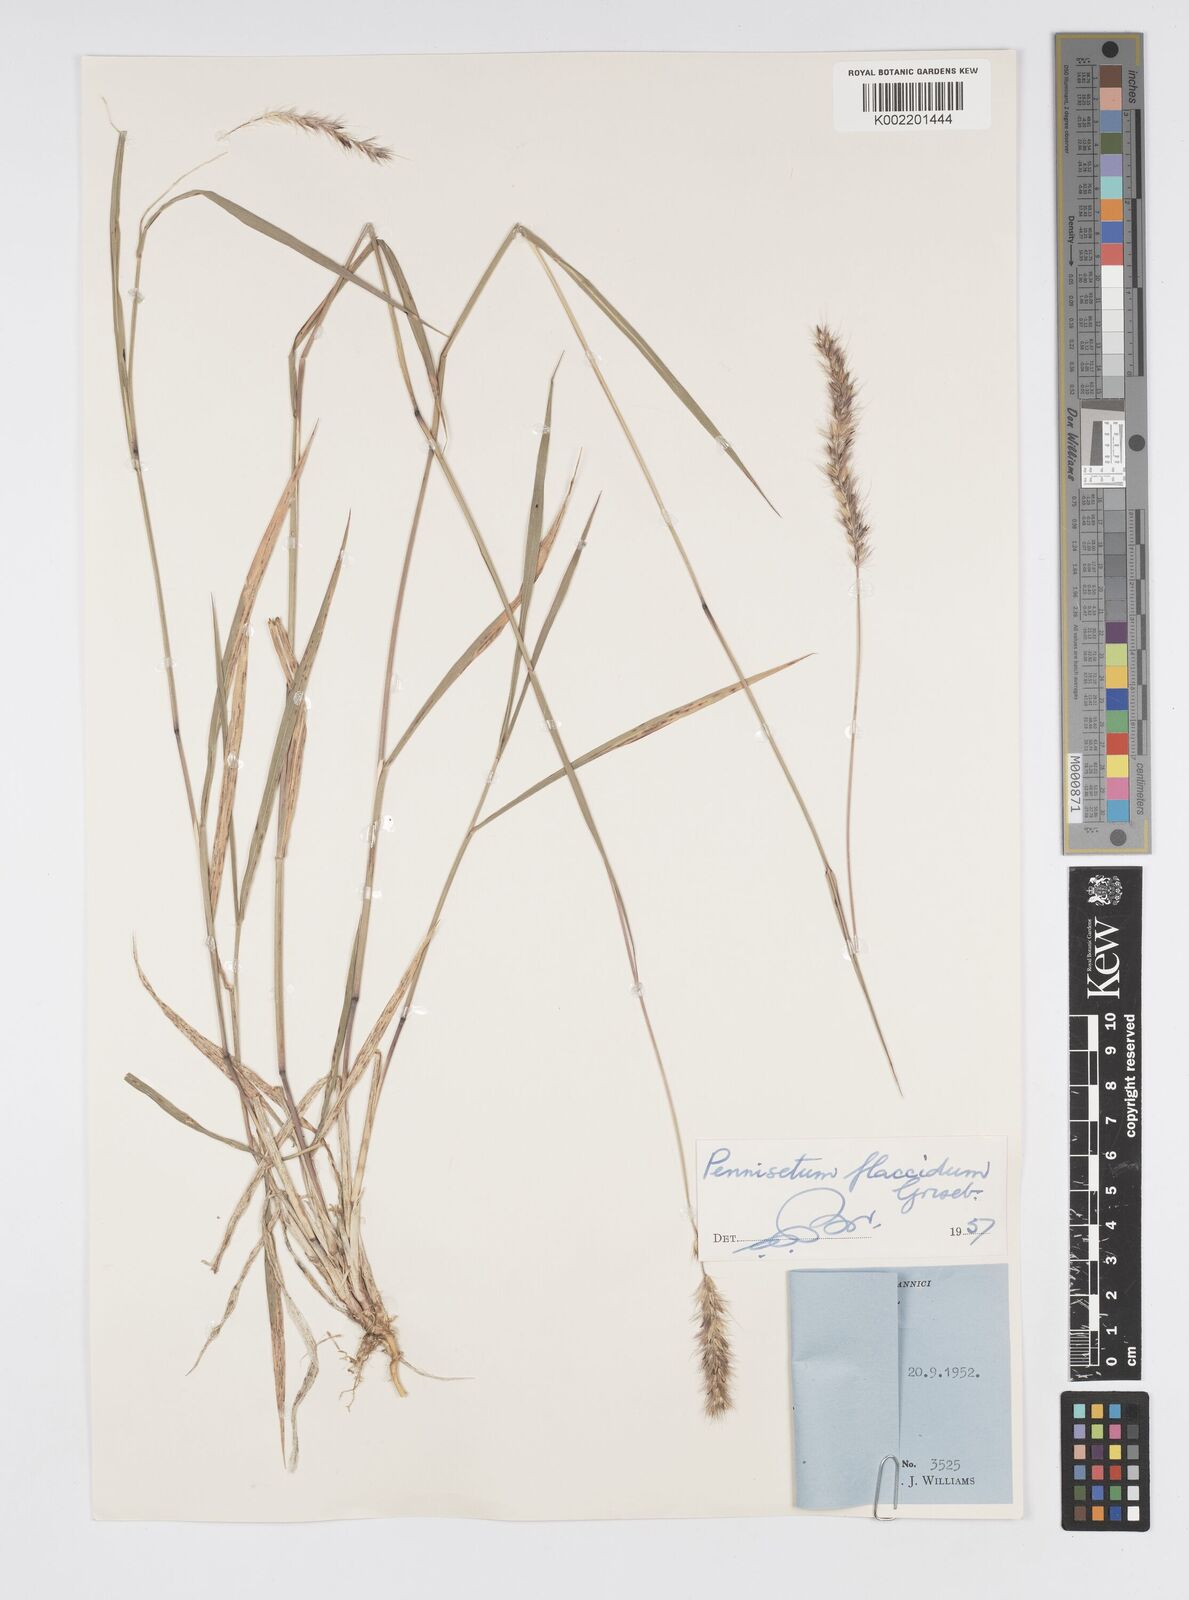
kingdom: Plantae
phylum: Tracheophyta
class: Liliopsida
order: Poales
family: Poaceae
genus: Cenchrus
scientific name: Cenchrus flaccidus
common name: Flaccid grass
